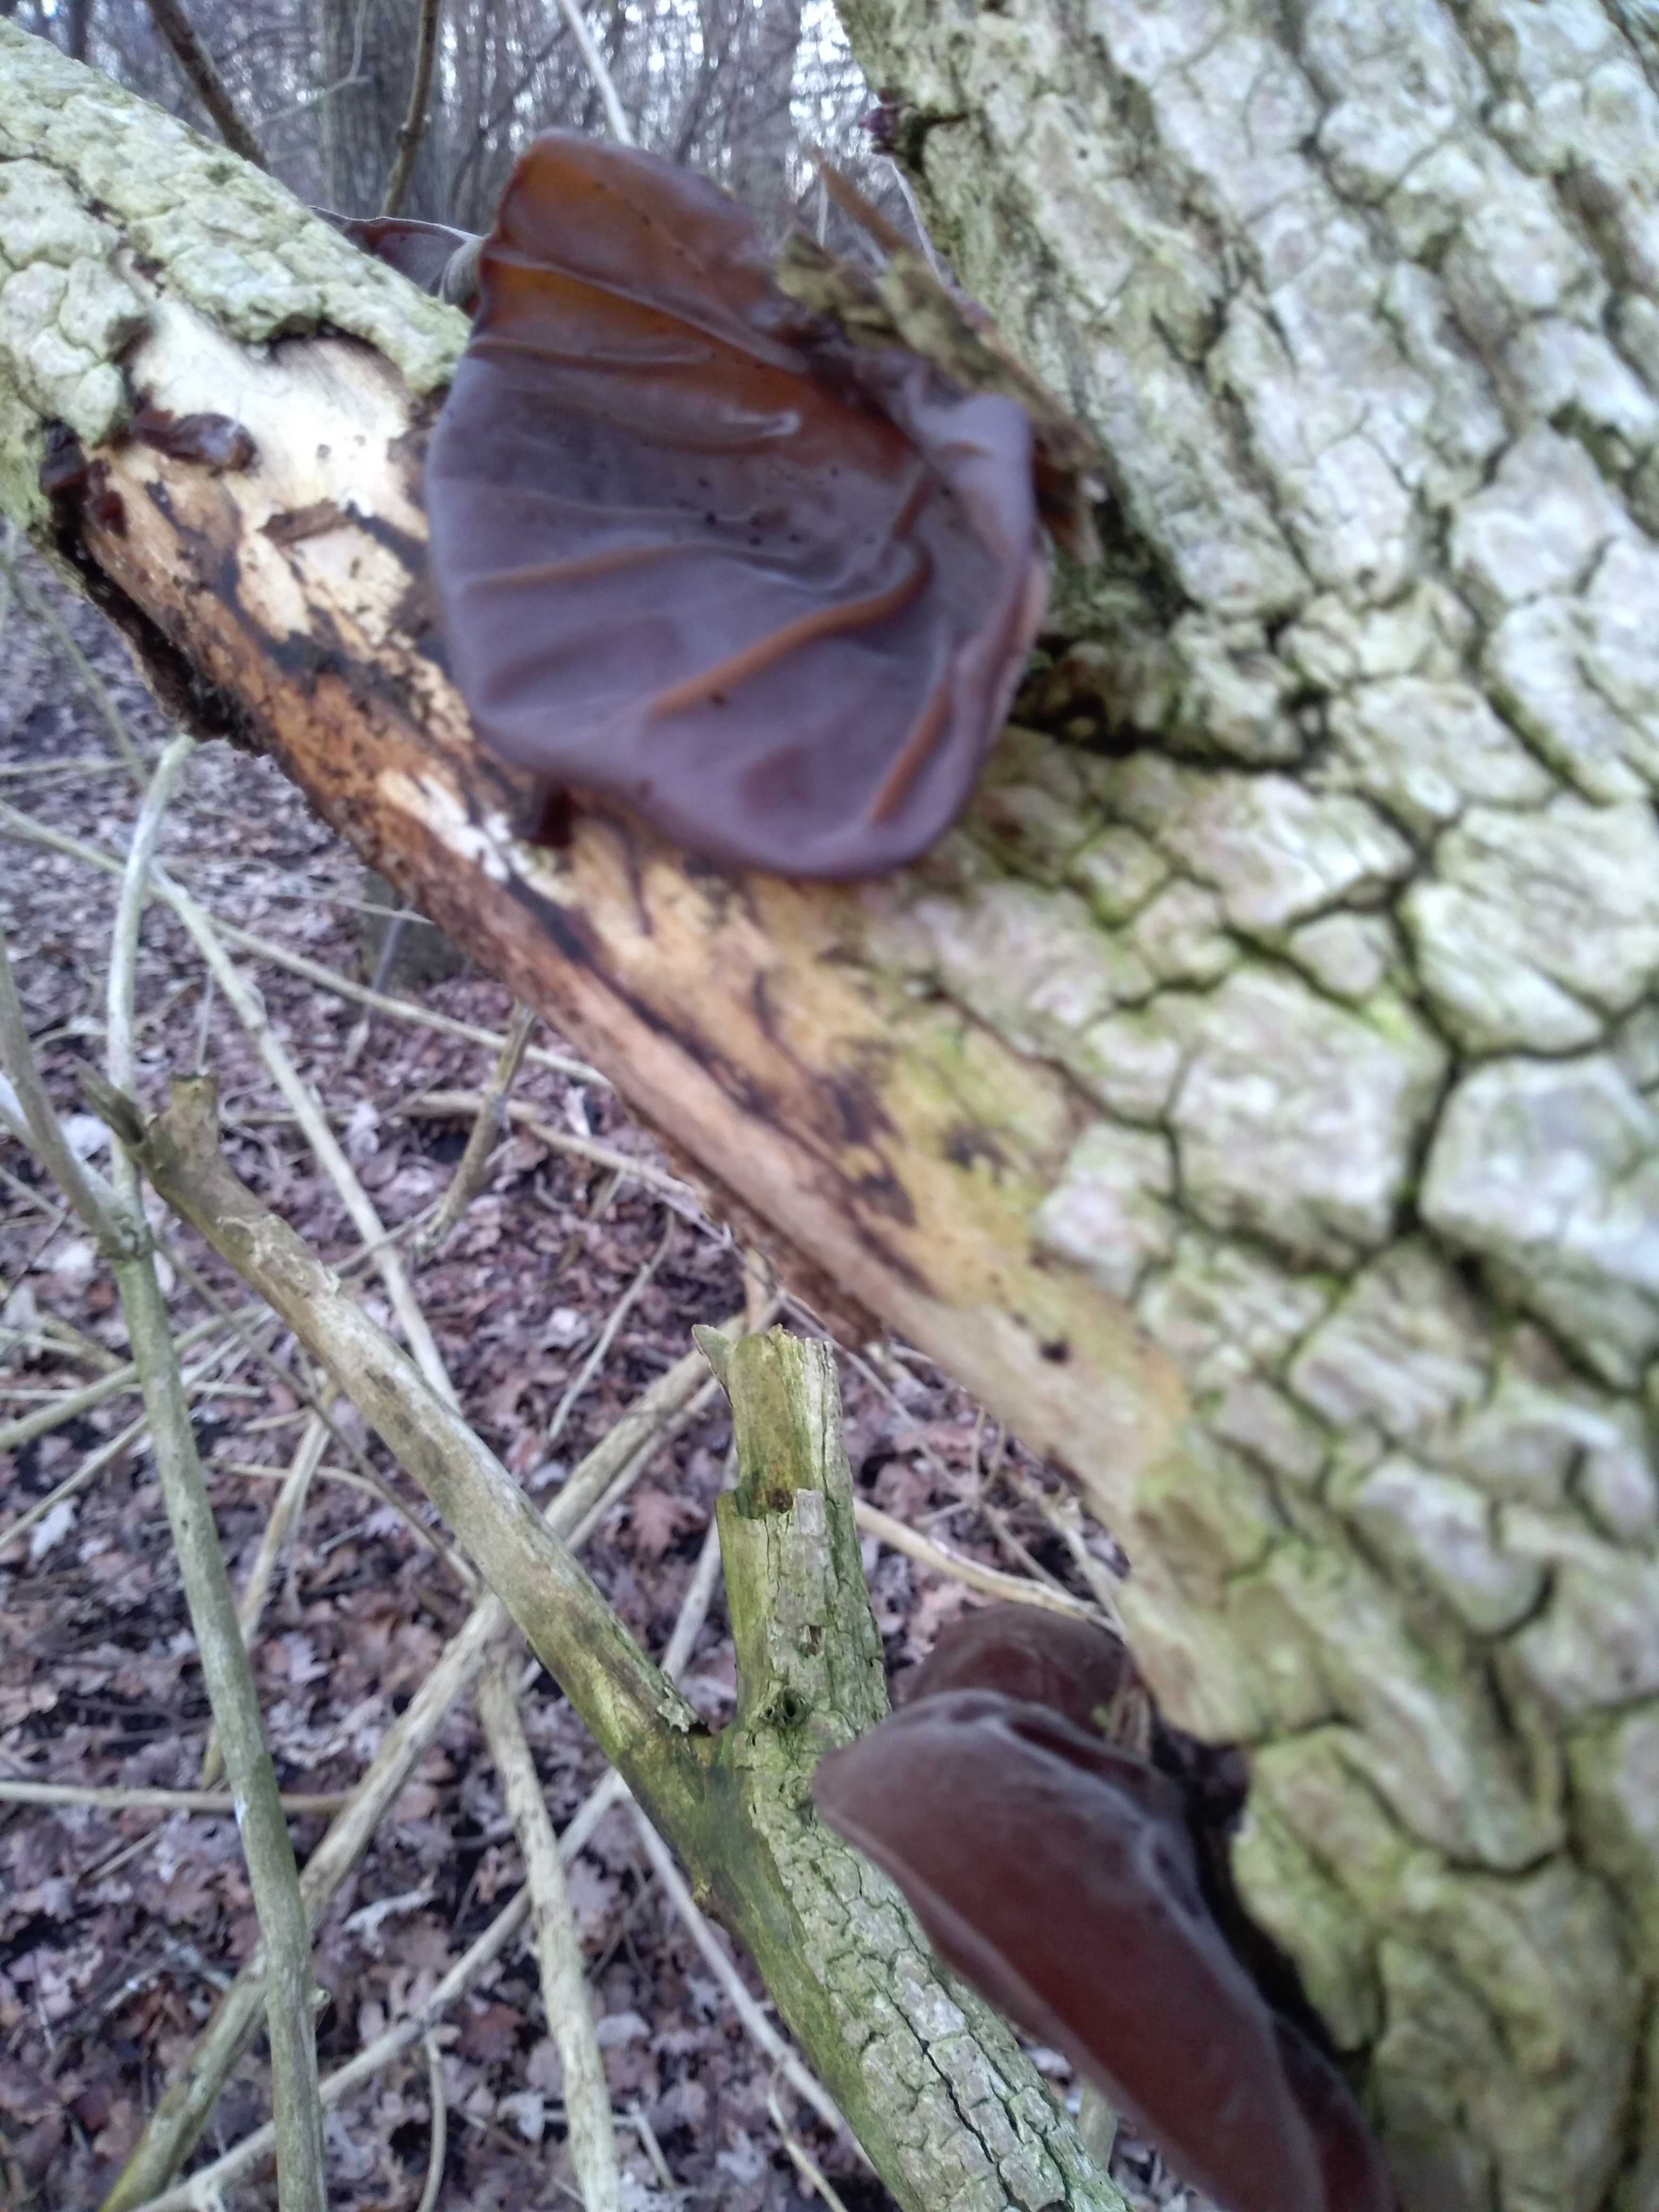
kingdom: Fungi
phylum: Basidiomycota
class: Agaricomycetes
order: Auriculariales
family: Auriculariaceae
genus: Auricularia
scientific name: Auricularia auricula-judae
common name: almindelig judasøre
